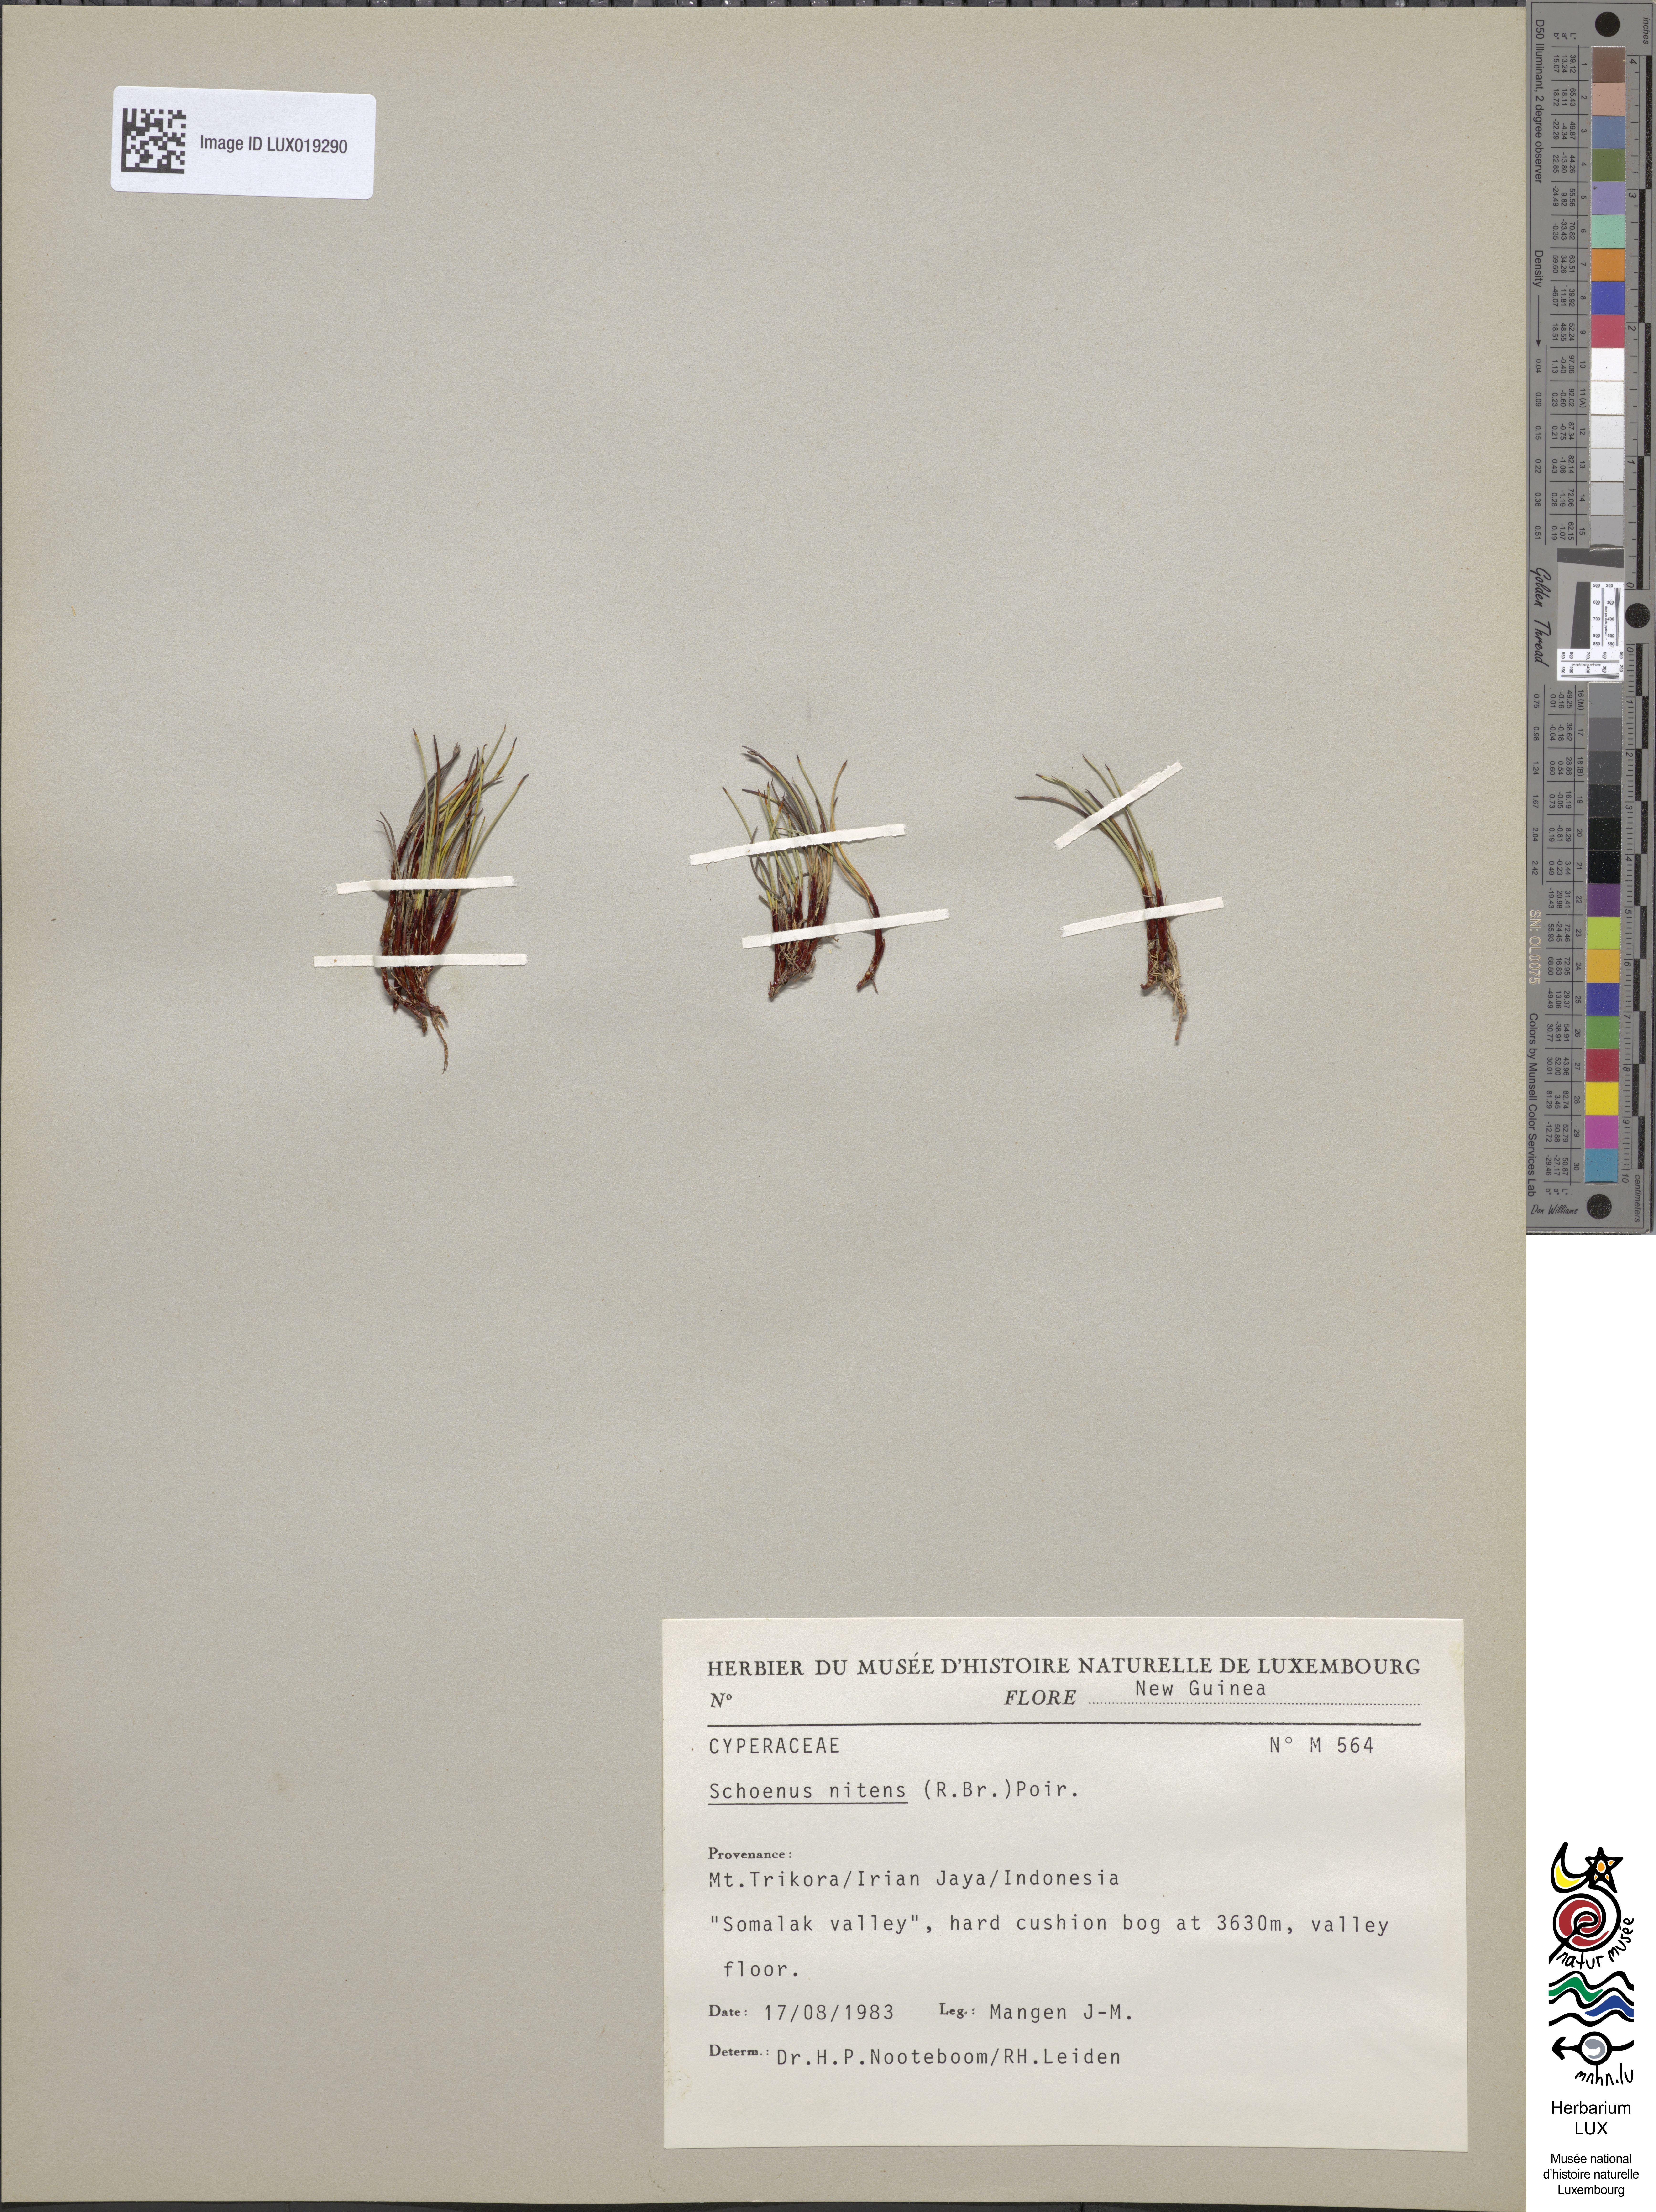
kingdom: Plantae
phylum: Tracheophyta
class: Liliopsida
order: Poales
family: Cyperaceae
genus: Schoenus
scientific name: Schoenus nitens
